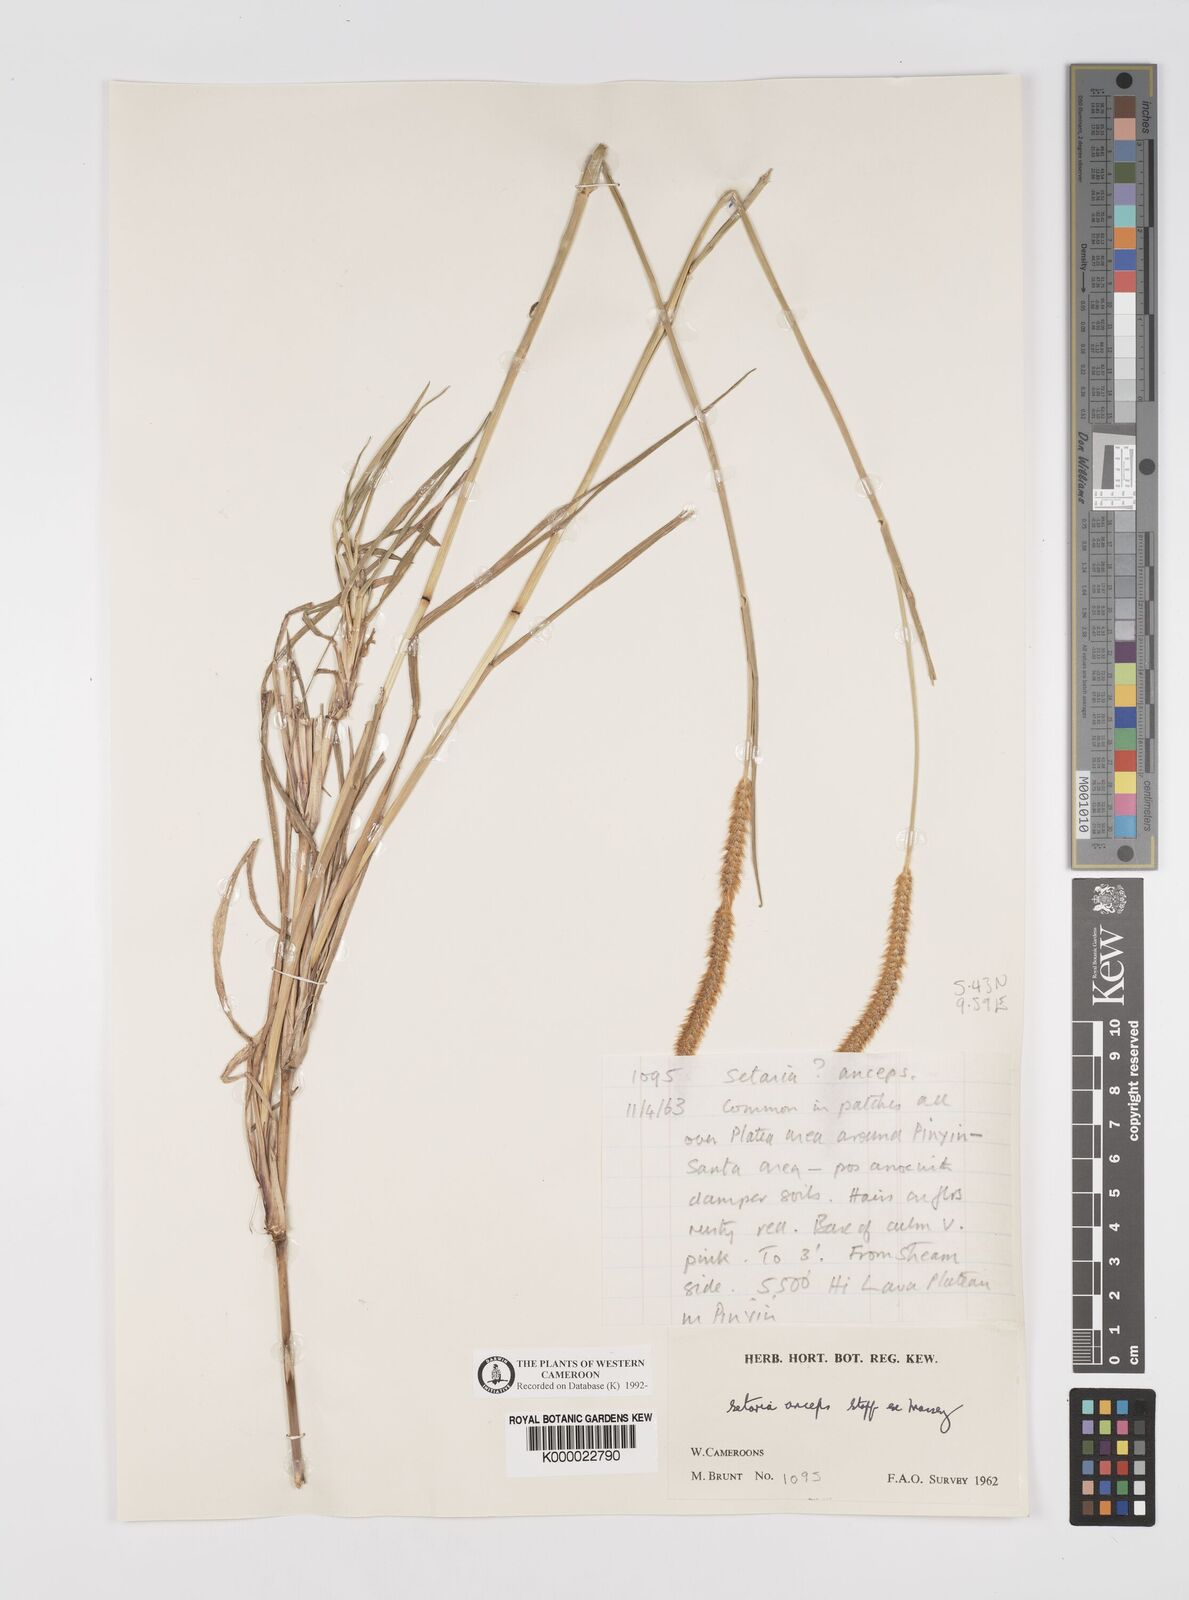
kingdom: Plantae
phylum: Tracheophyta
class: Liliopsida
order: Poales
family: Poaceae
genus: Setaria
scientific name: Setaria sphacelata
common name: African bristlegrass
